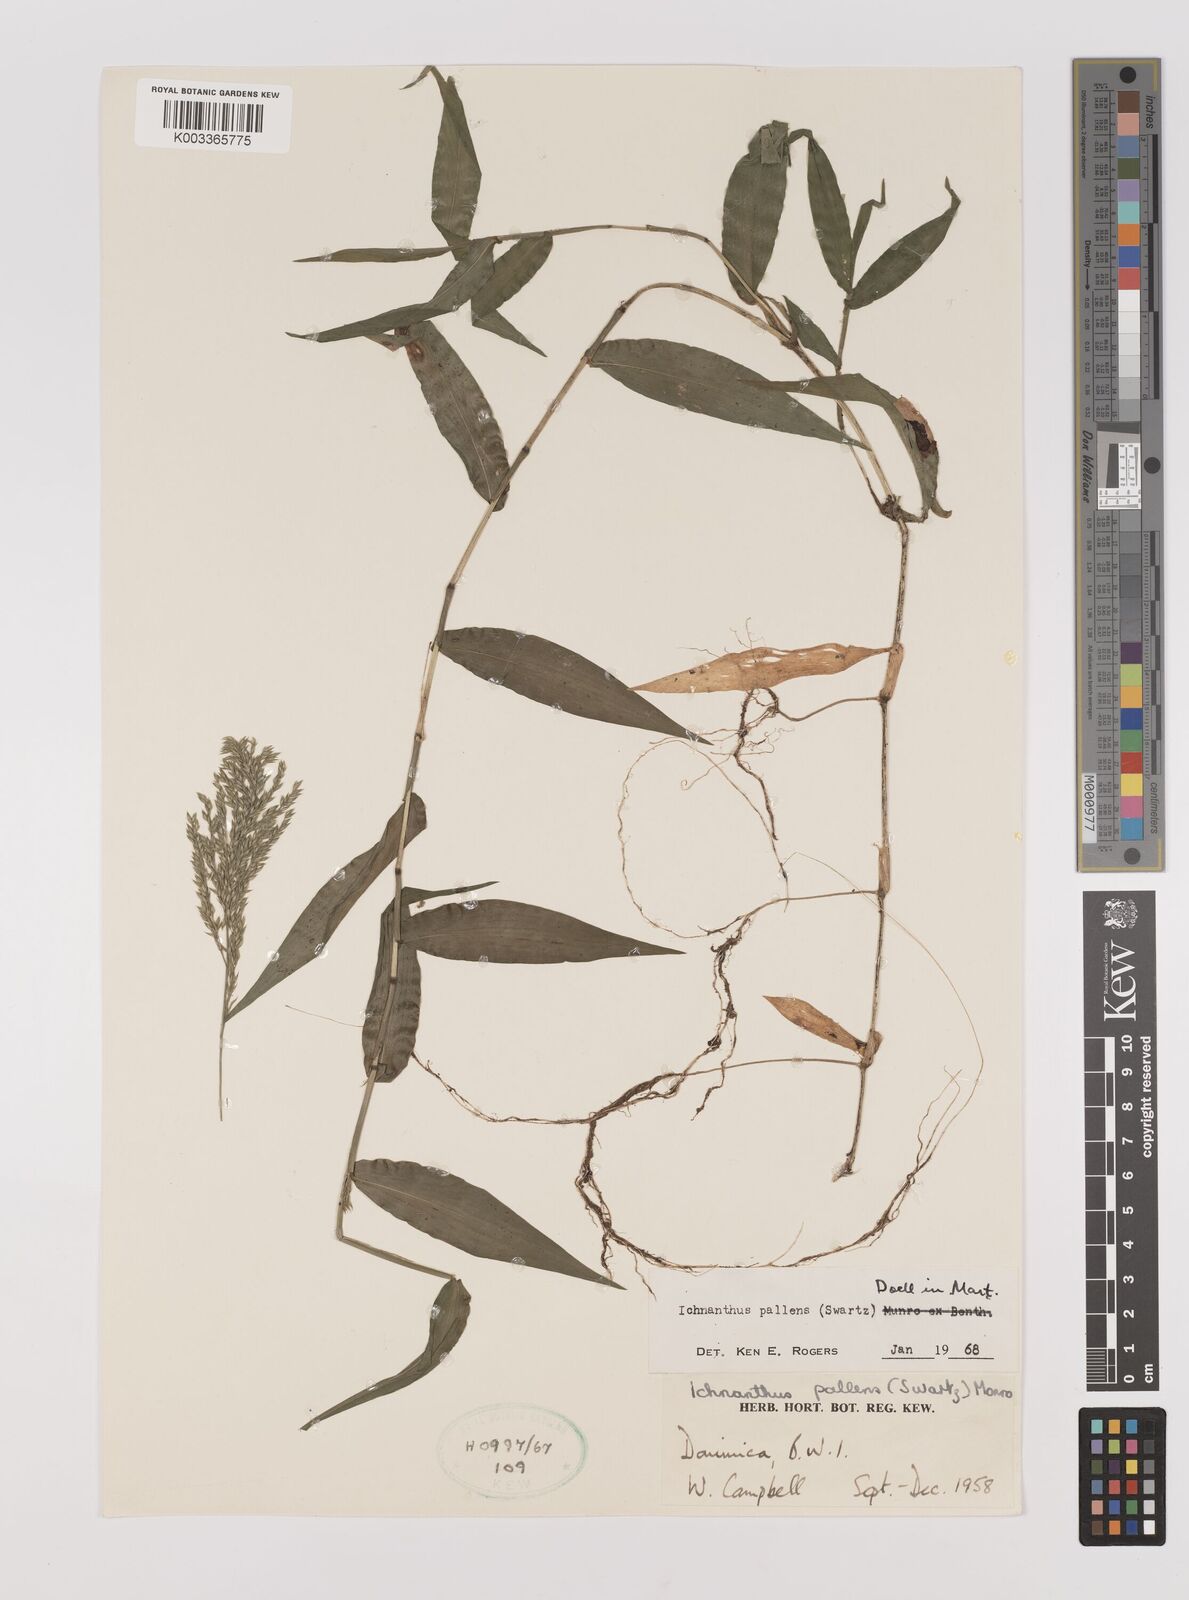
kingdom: Plantae
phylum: Tracheophyta
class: Liliopsida
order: Poales
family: Poaceae
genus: Ichnanthus
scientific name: Ichnanthus pallens
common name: Water grass
